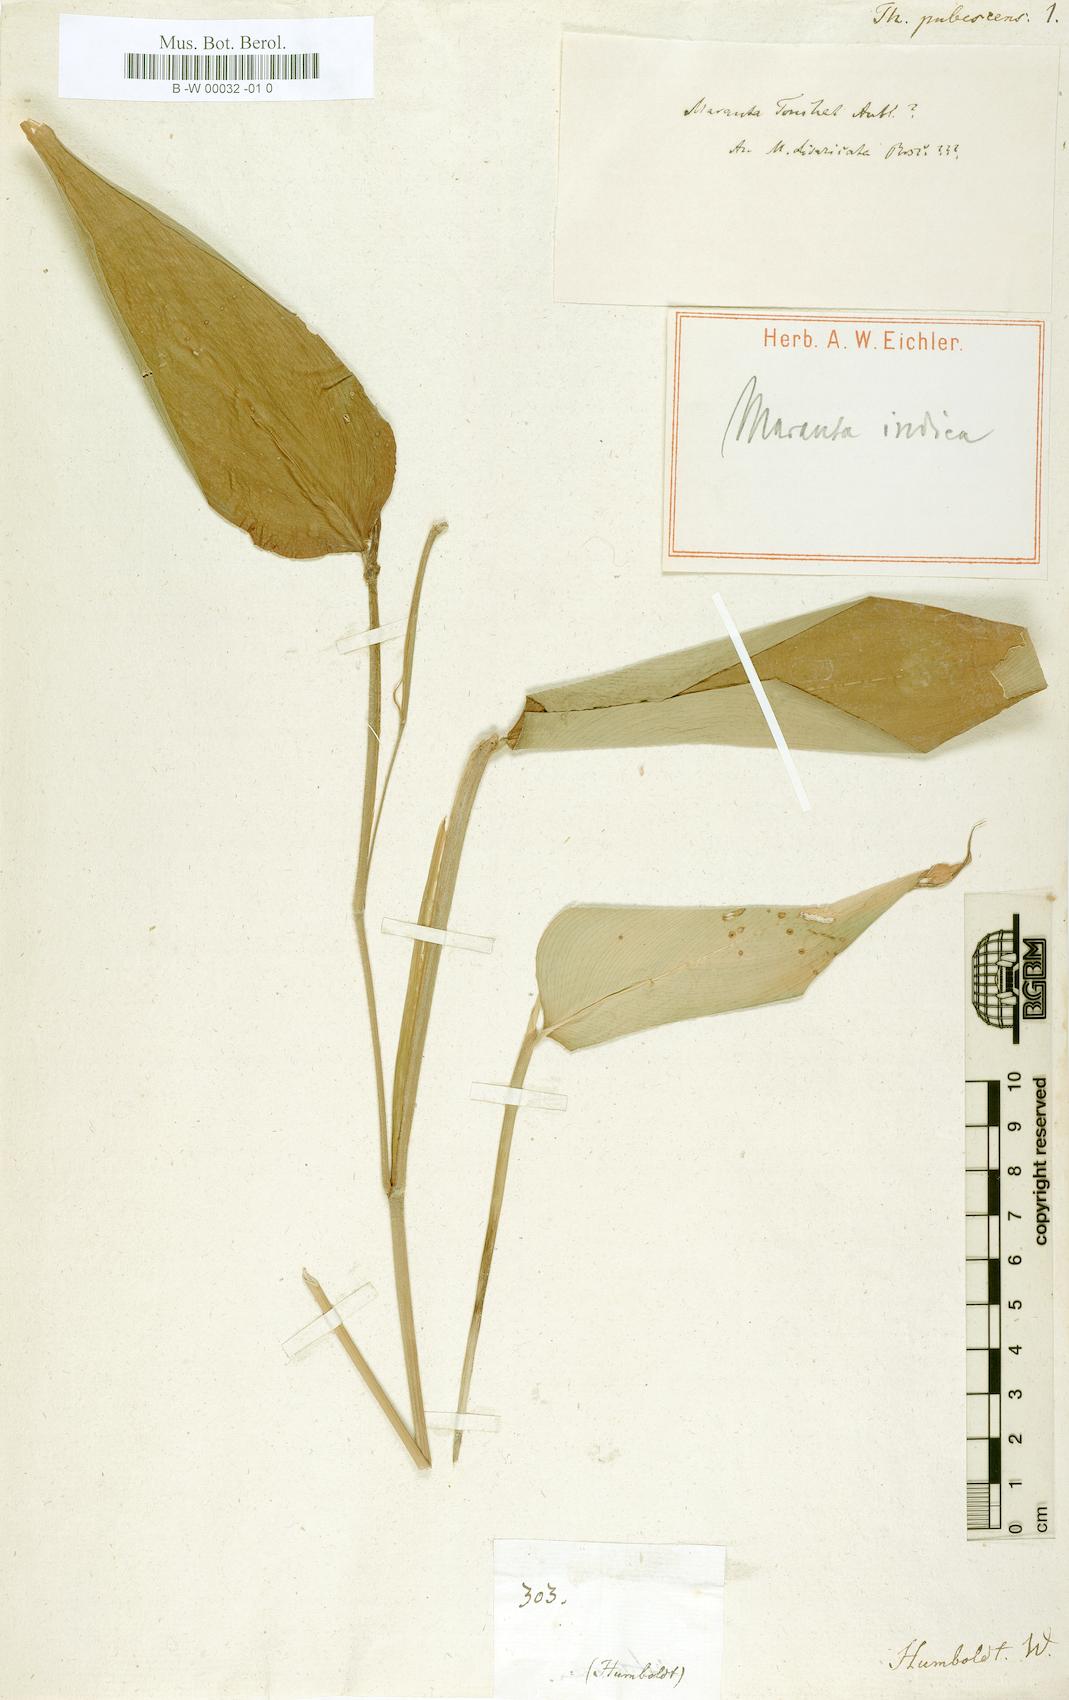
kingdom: Plantae
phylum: Tracheophyta
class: Liliopsida
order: Zingiberales
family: Marantaceae
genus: Stromanthe
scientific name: Stromanthe tonckat
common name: Stromanthe
